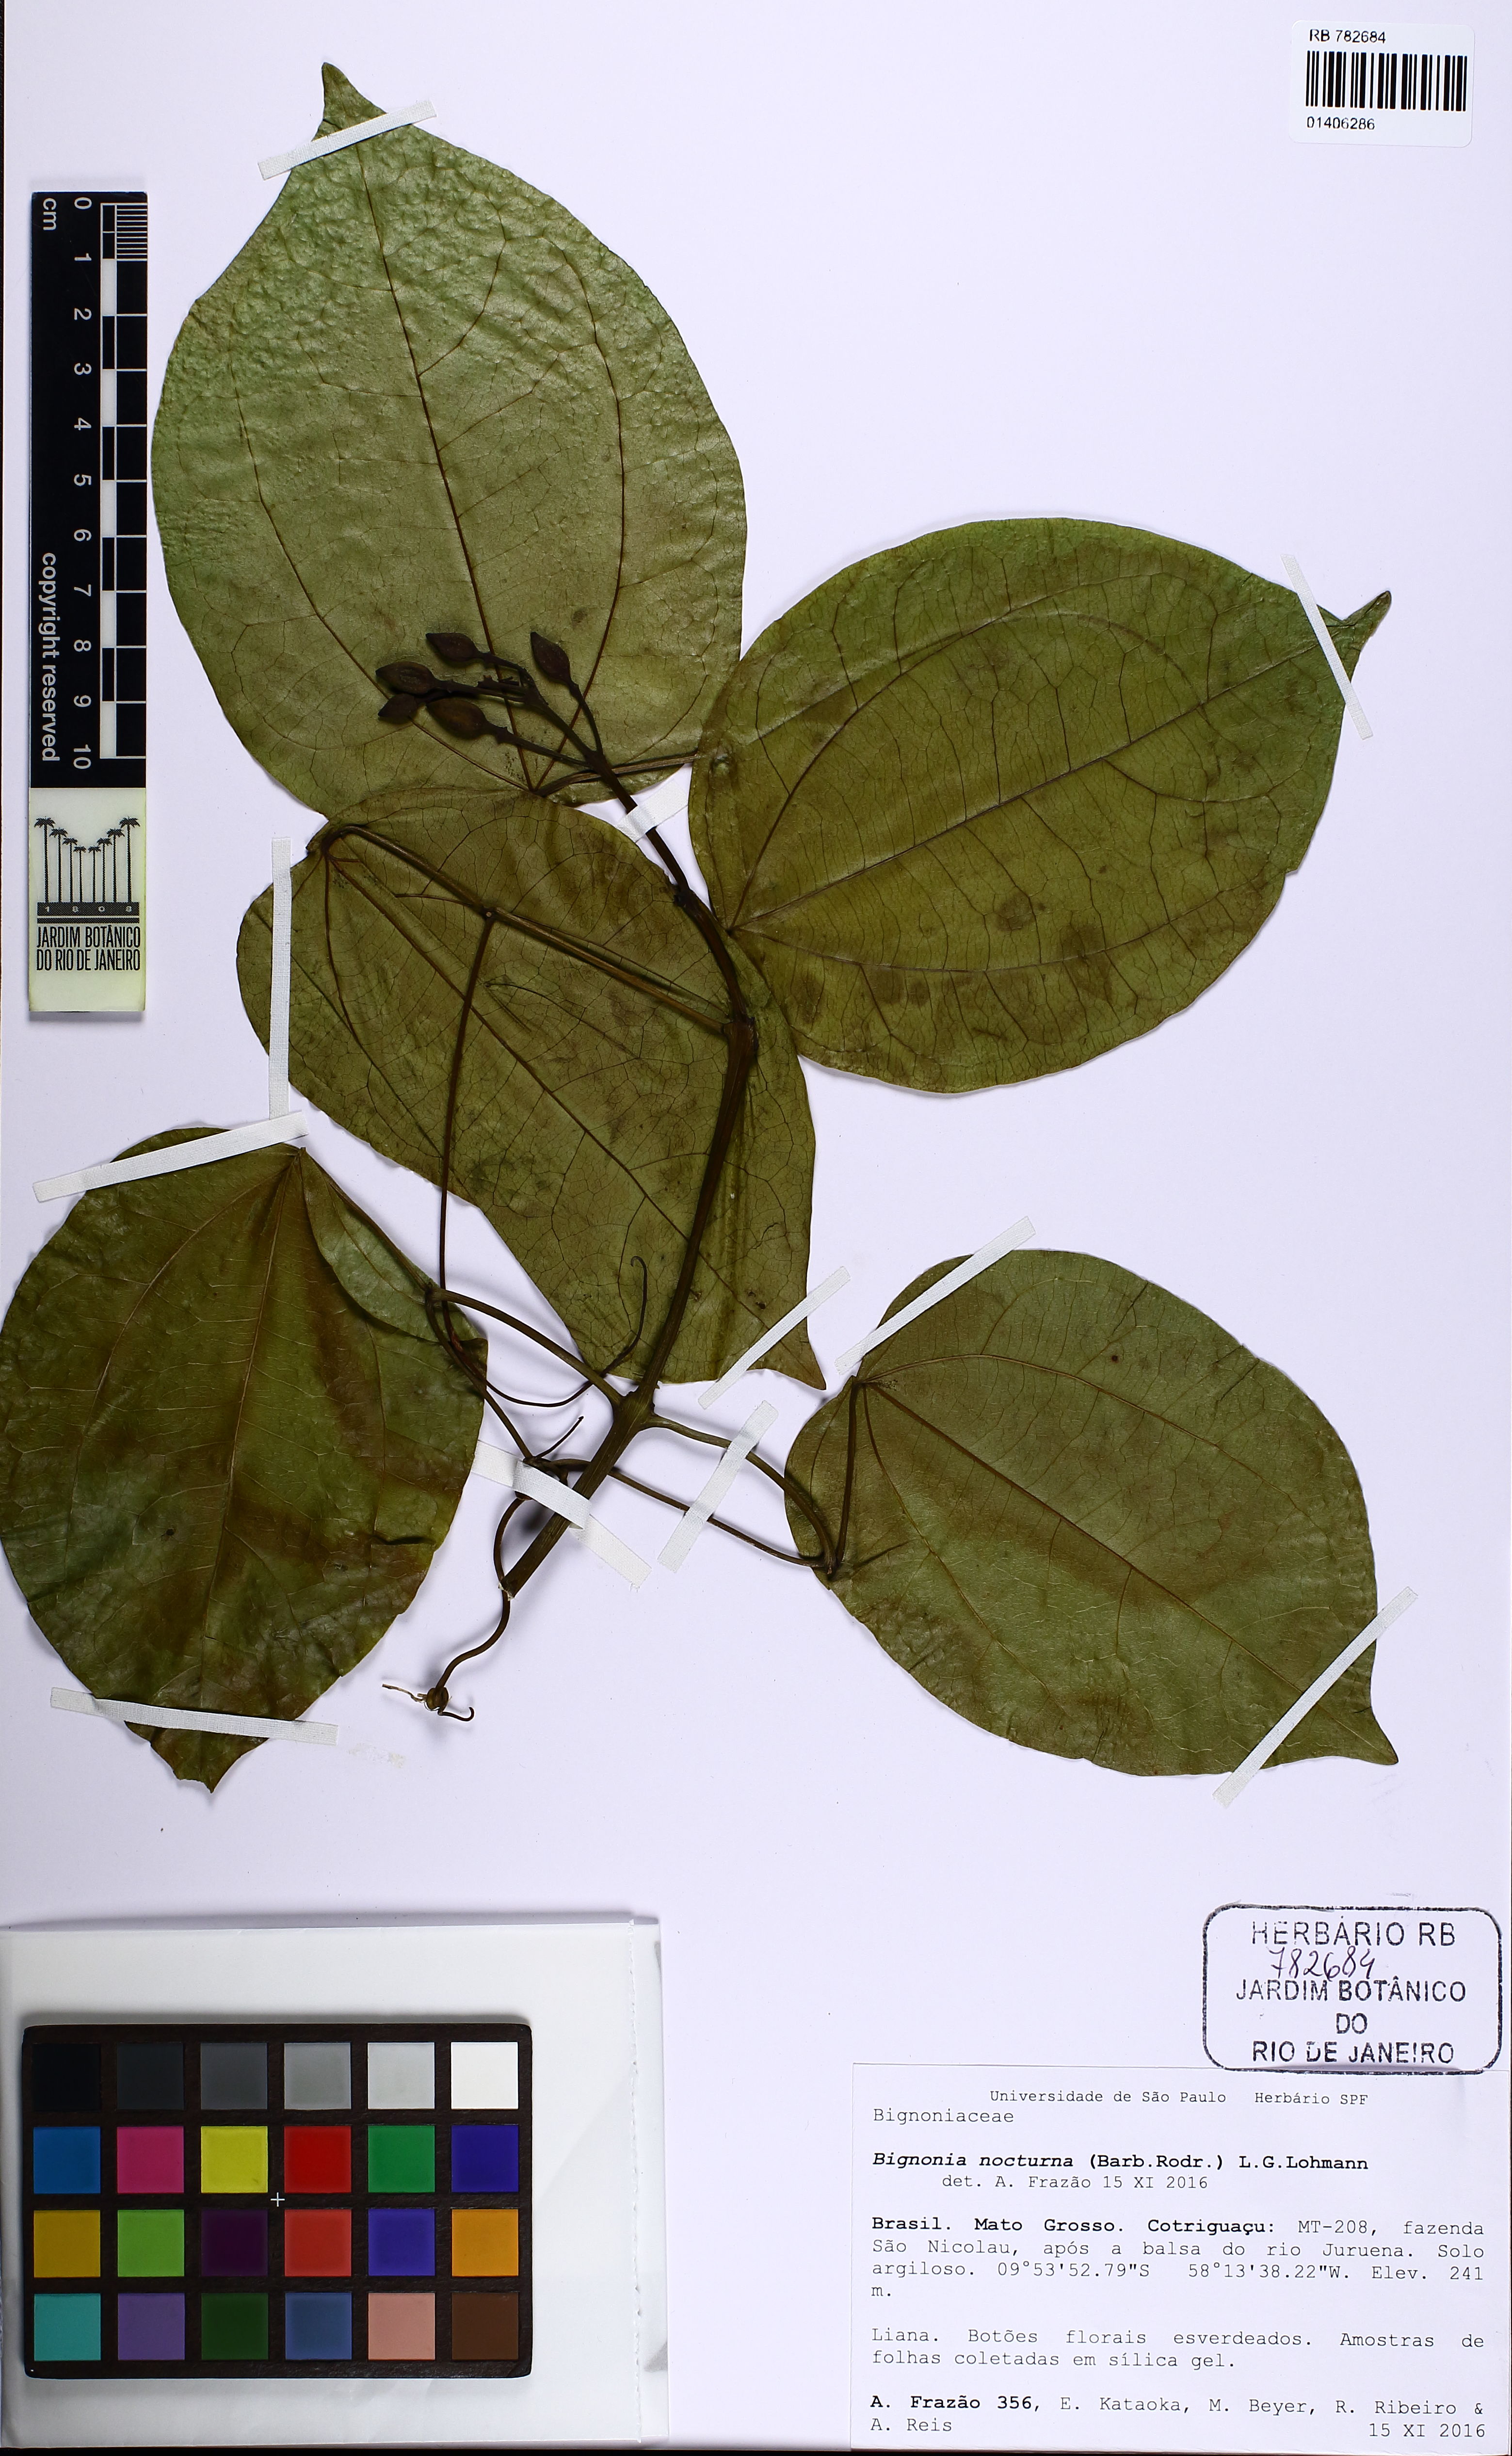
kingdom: Plantae
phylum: Tracheophyta
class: Magnoliopsida
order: Lamiales
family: Bignoniaceae
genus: Bignonia
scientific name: Bignonia nocturna
